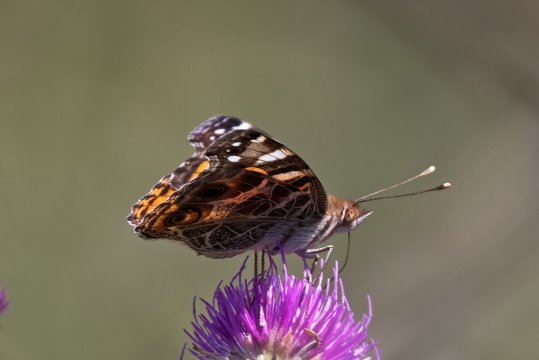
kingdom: Animalia
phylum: Arthropoda
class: Insecta
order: Lepidoptera
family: Nymphalidae
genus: Vanessa
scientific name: Vanessa virginiensis
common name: American Lady
